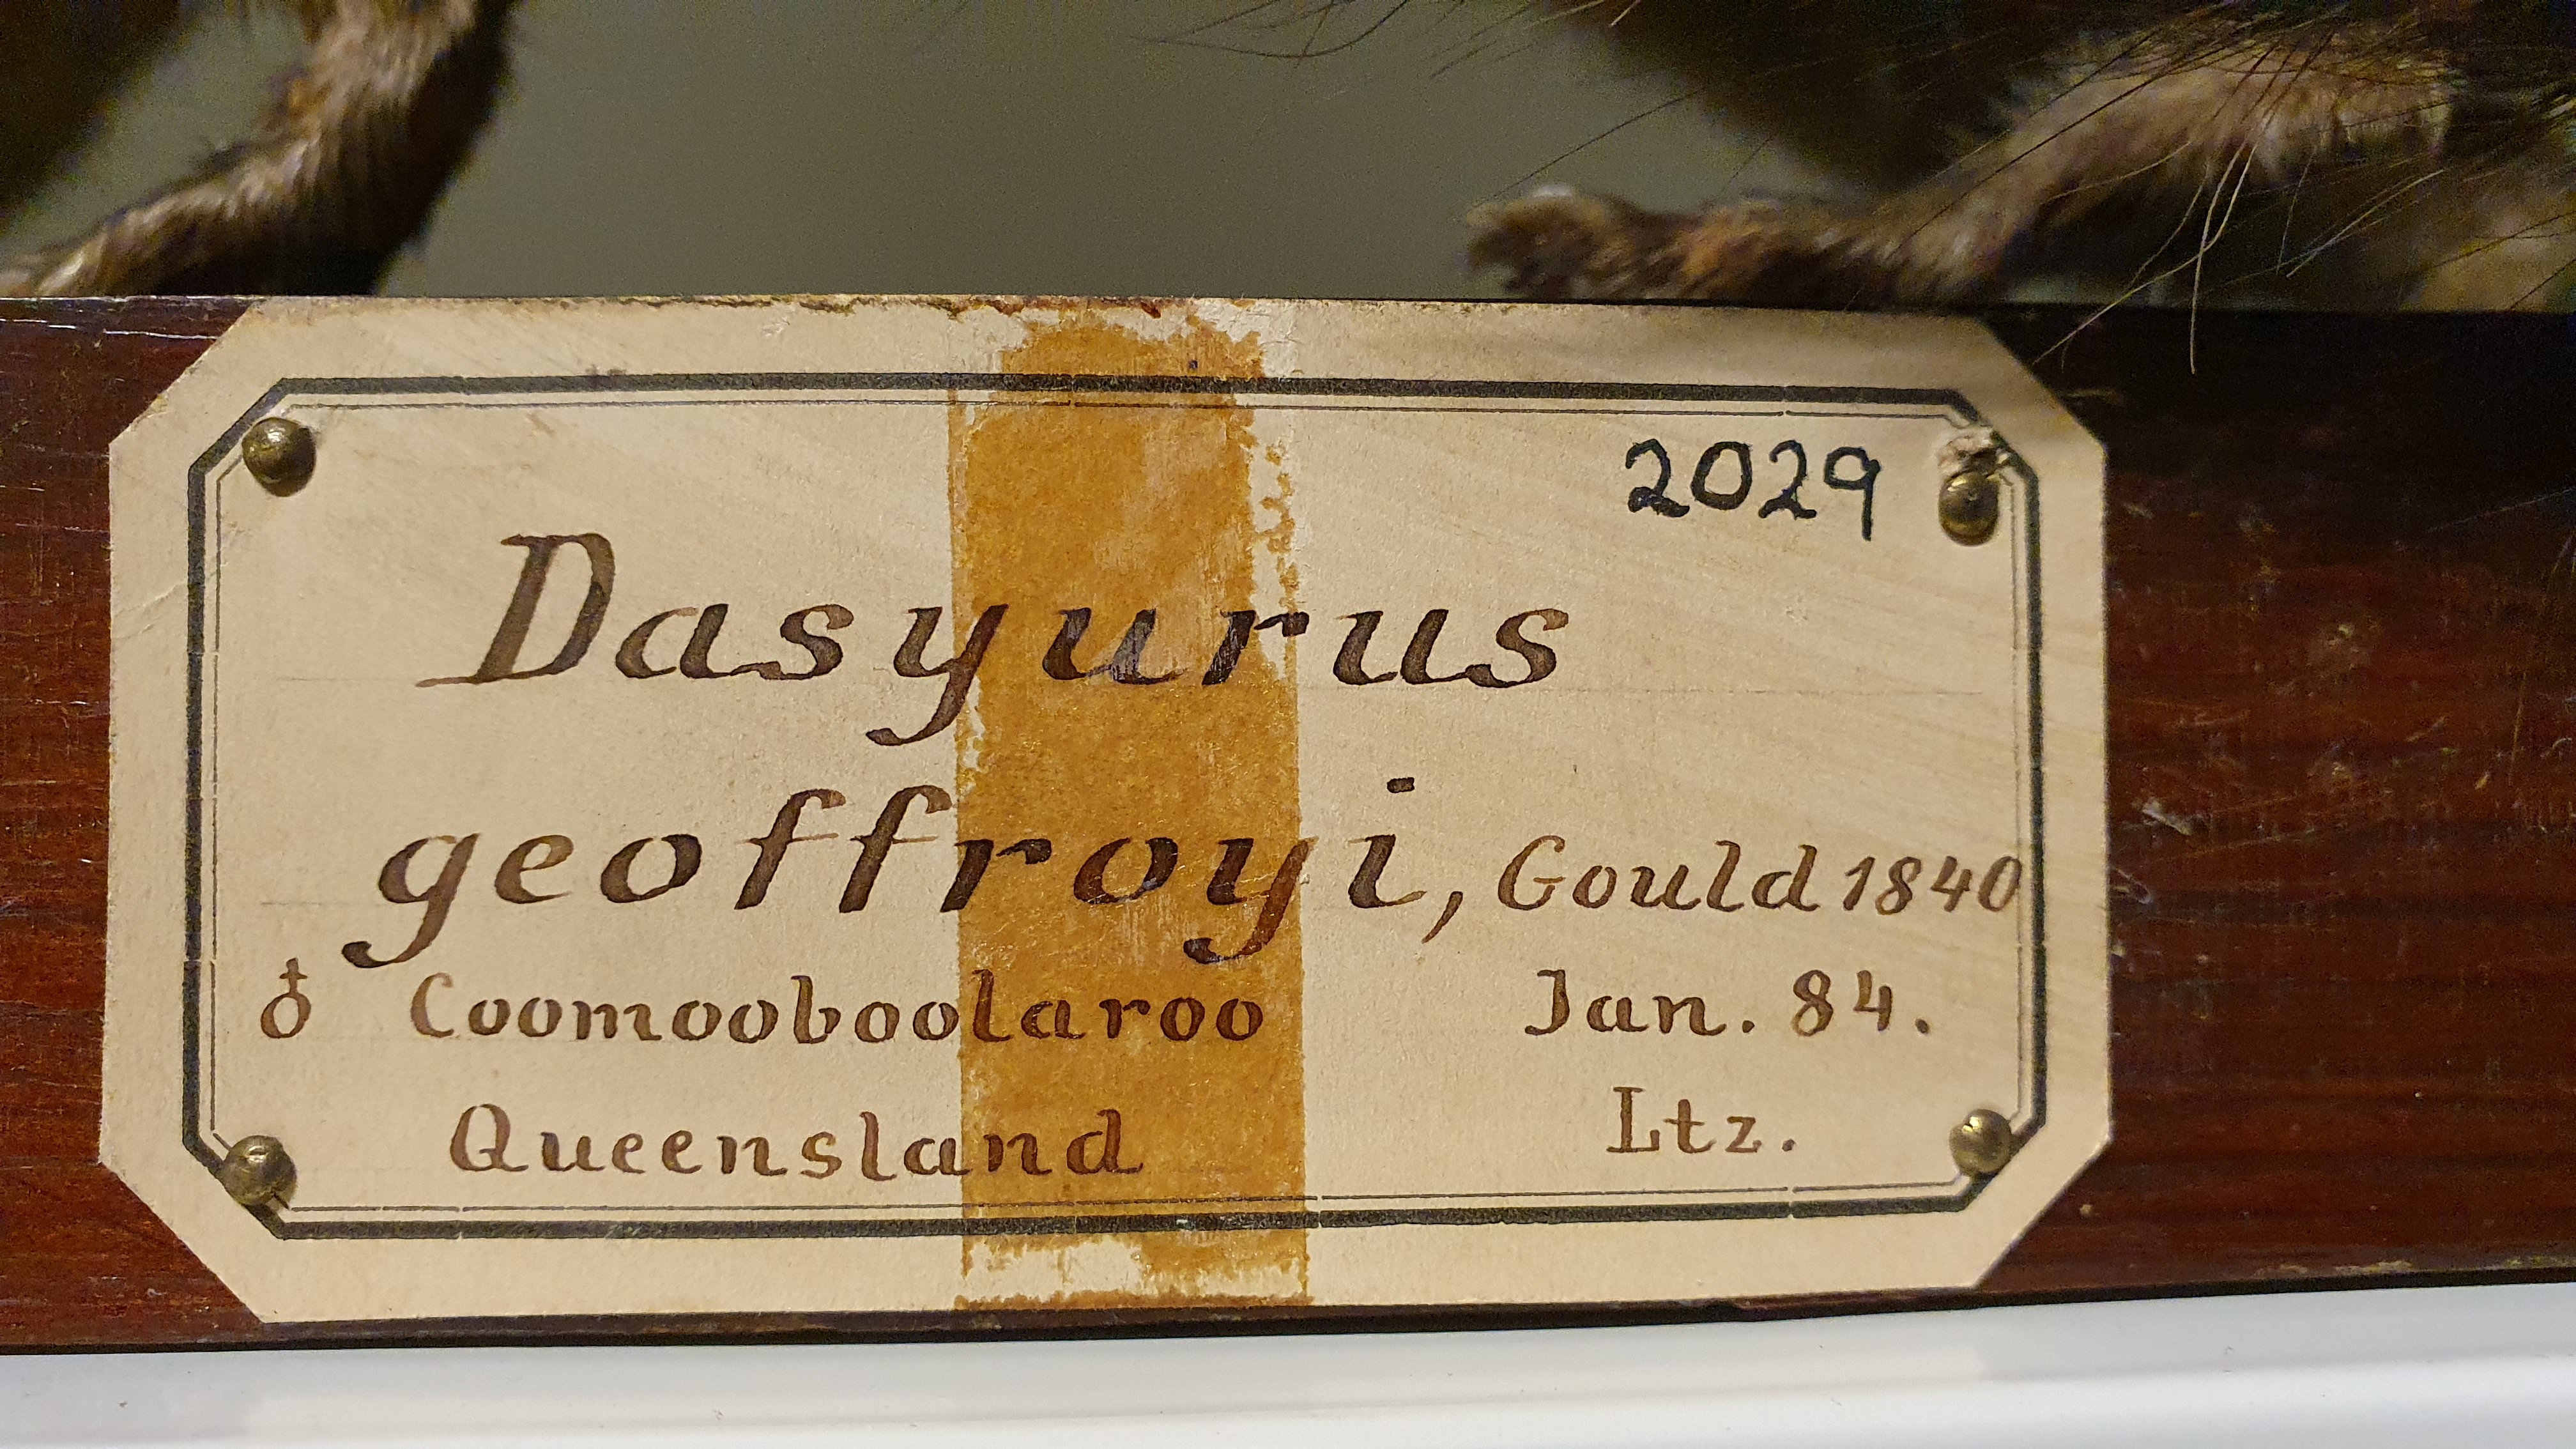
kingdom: Animalia
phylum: Chordata
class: Mammalia
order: Dasyuromorphia
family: Dasyuridae
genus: Dasyurus
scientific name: Dasyurus geoffroii
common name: Western quoll
